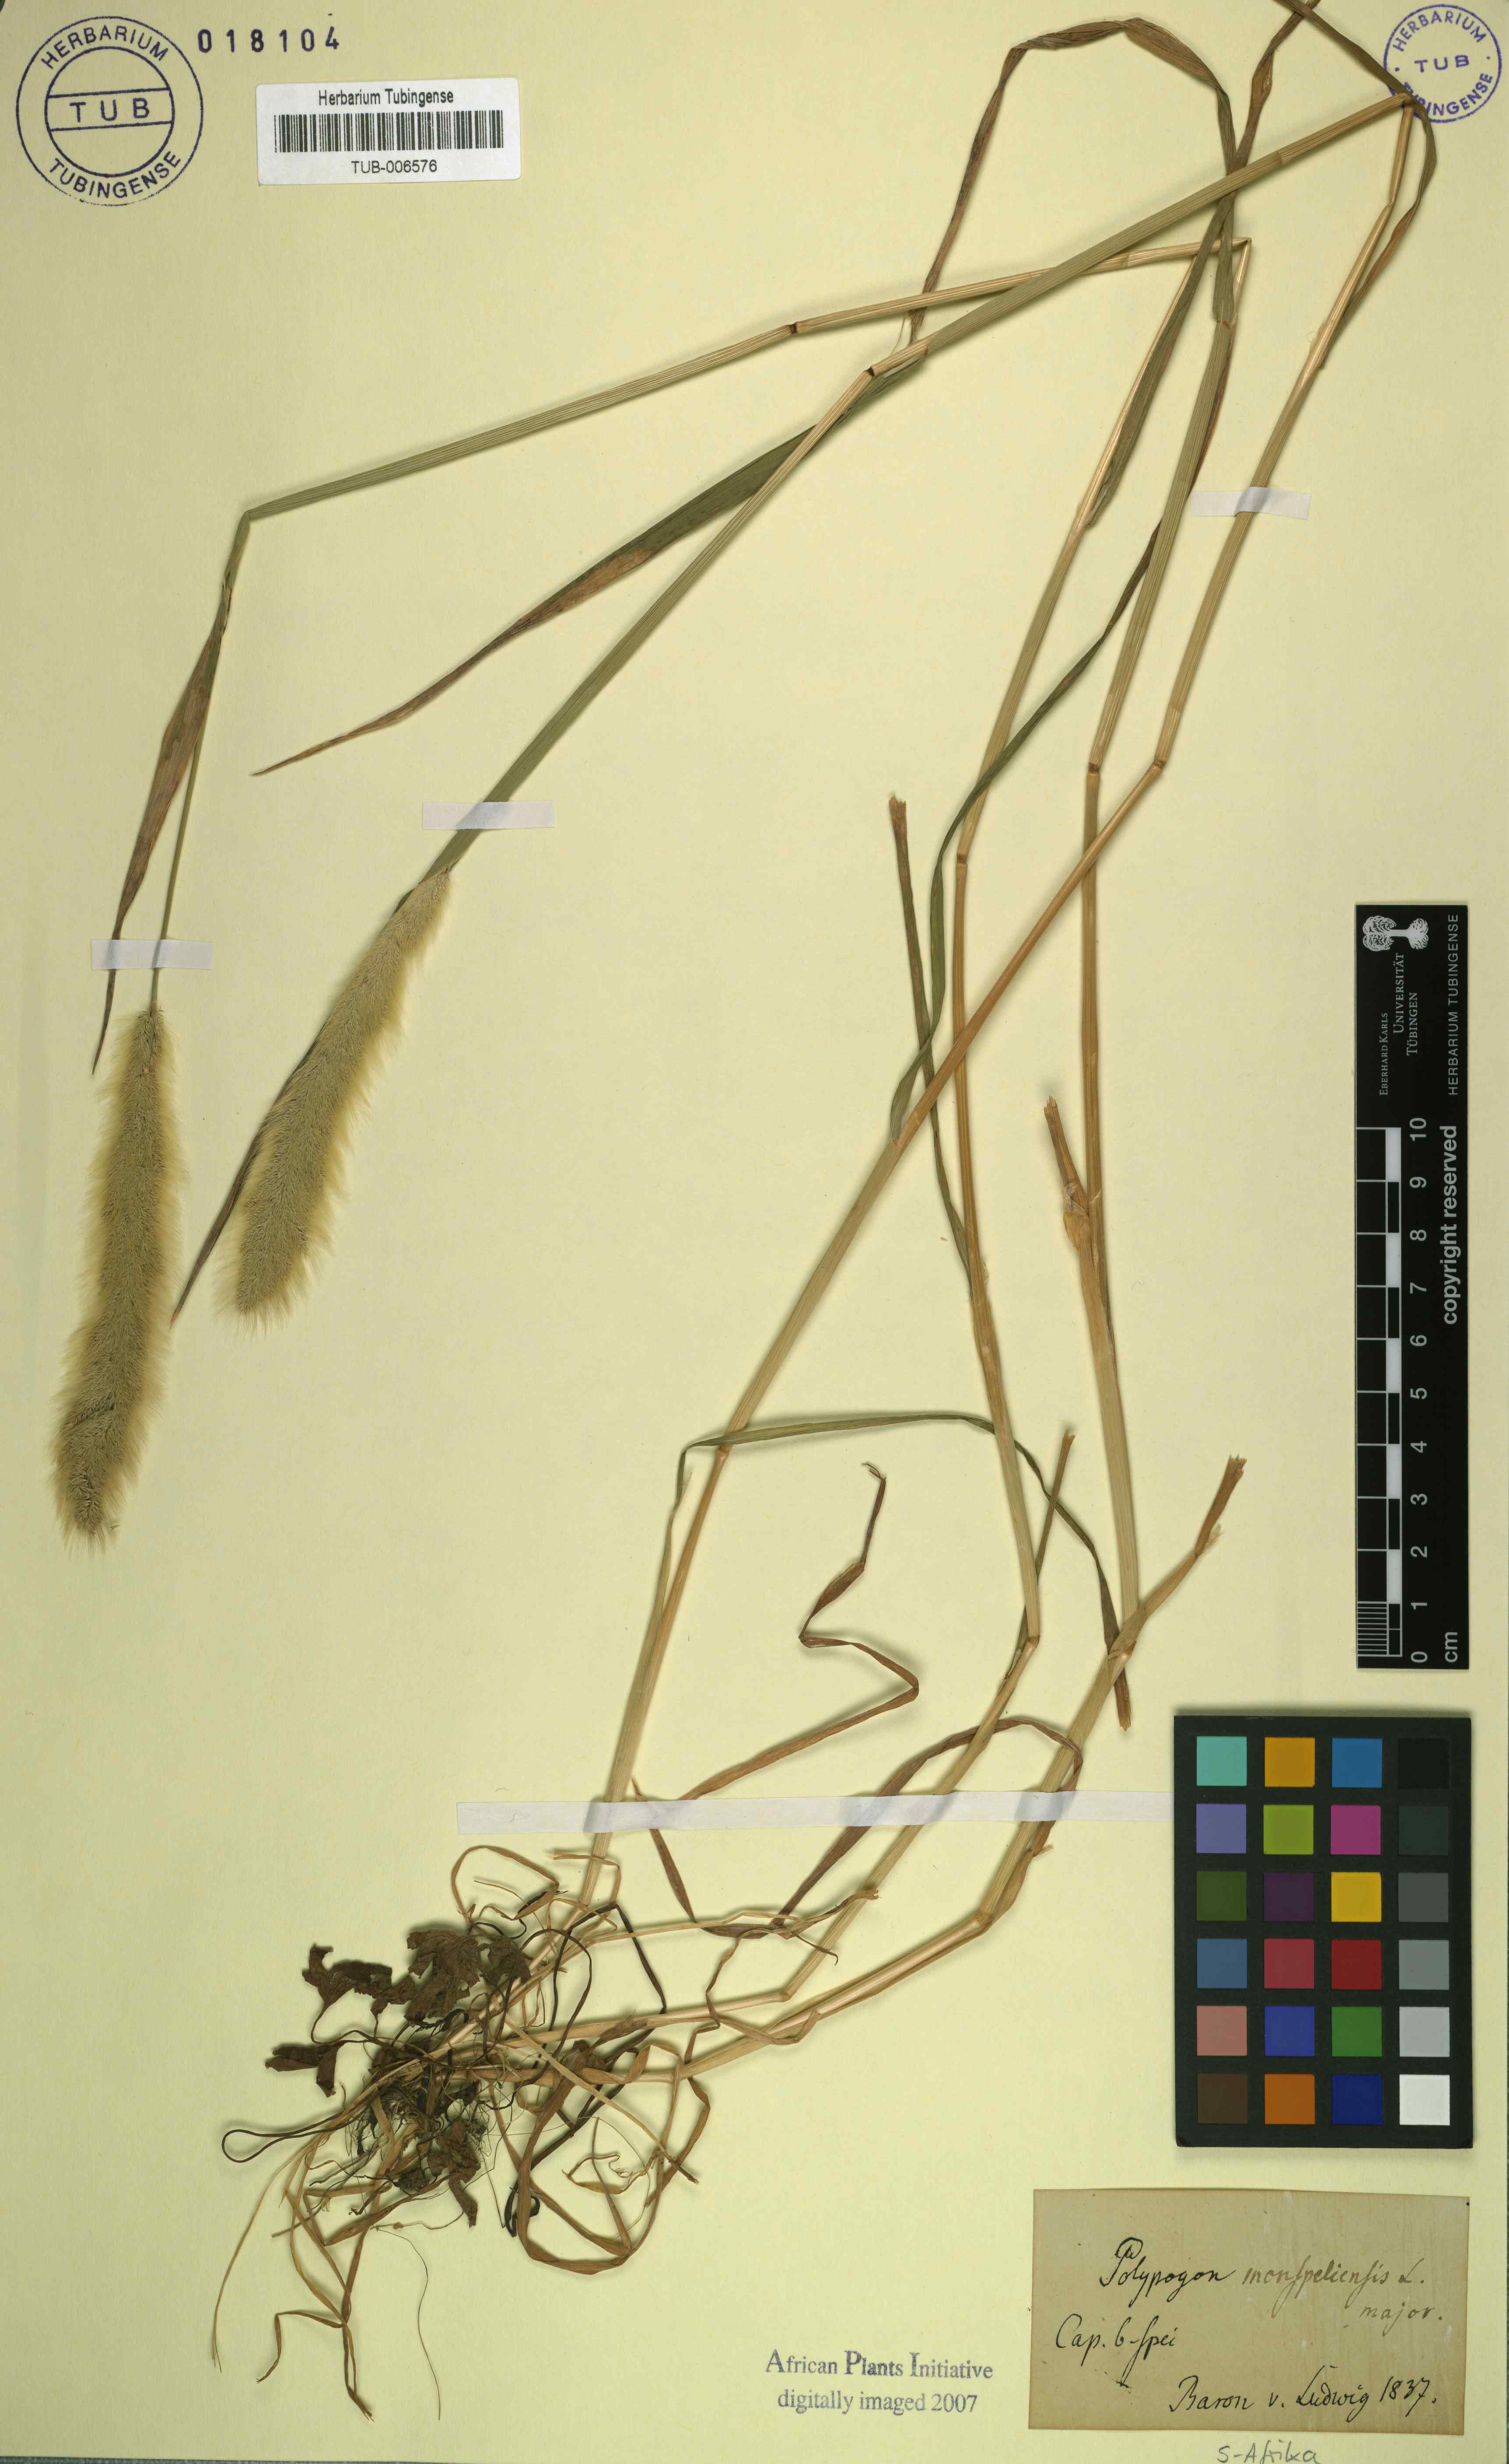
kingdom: Plantae
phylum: Tracheophyta
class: Liliopsida
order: Poales
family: Poaceae
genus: Polypogon
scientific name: Polypogon monspeliensis
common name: Annual rabbitsfoot grass
